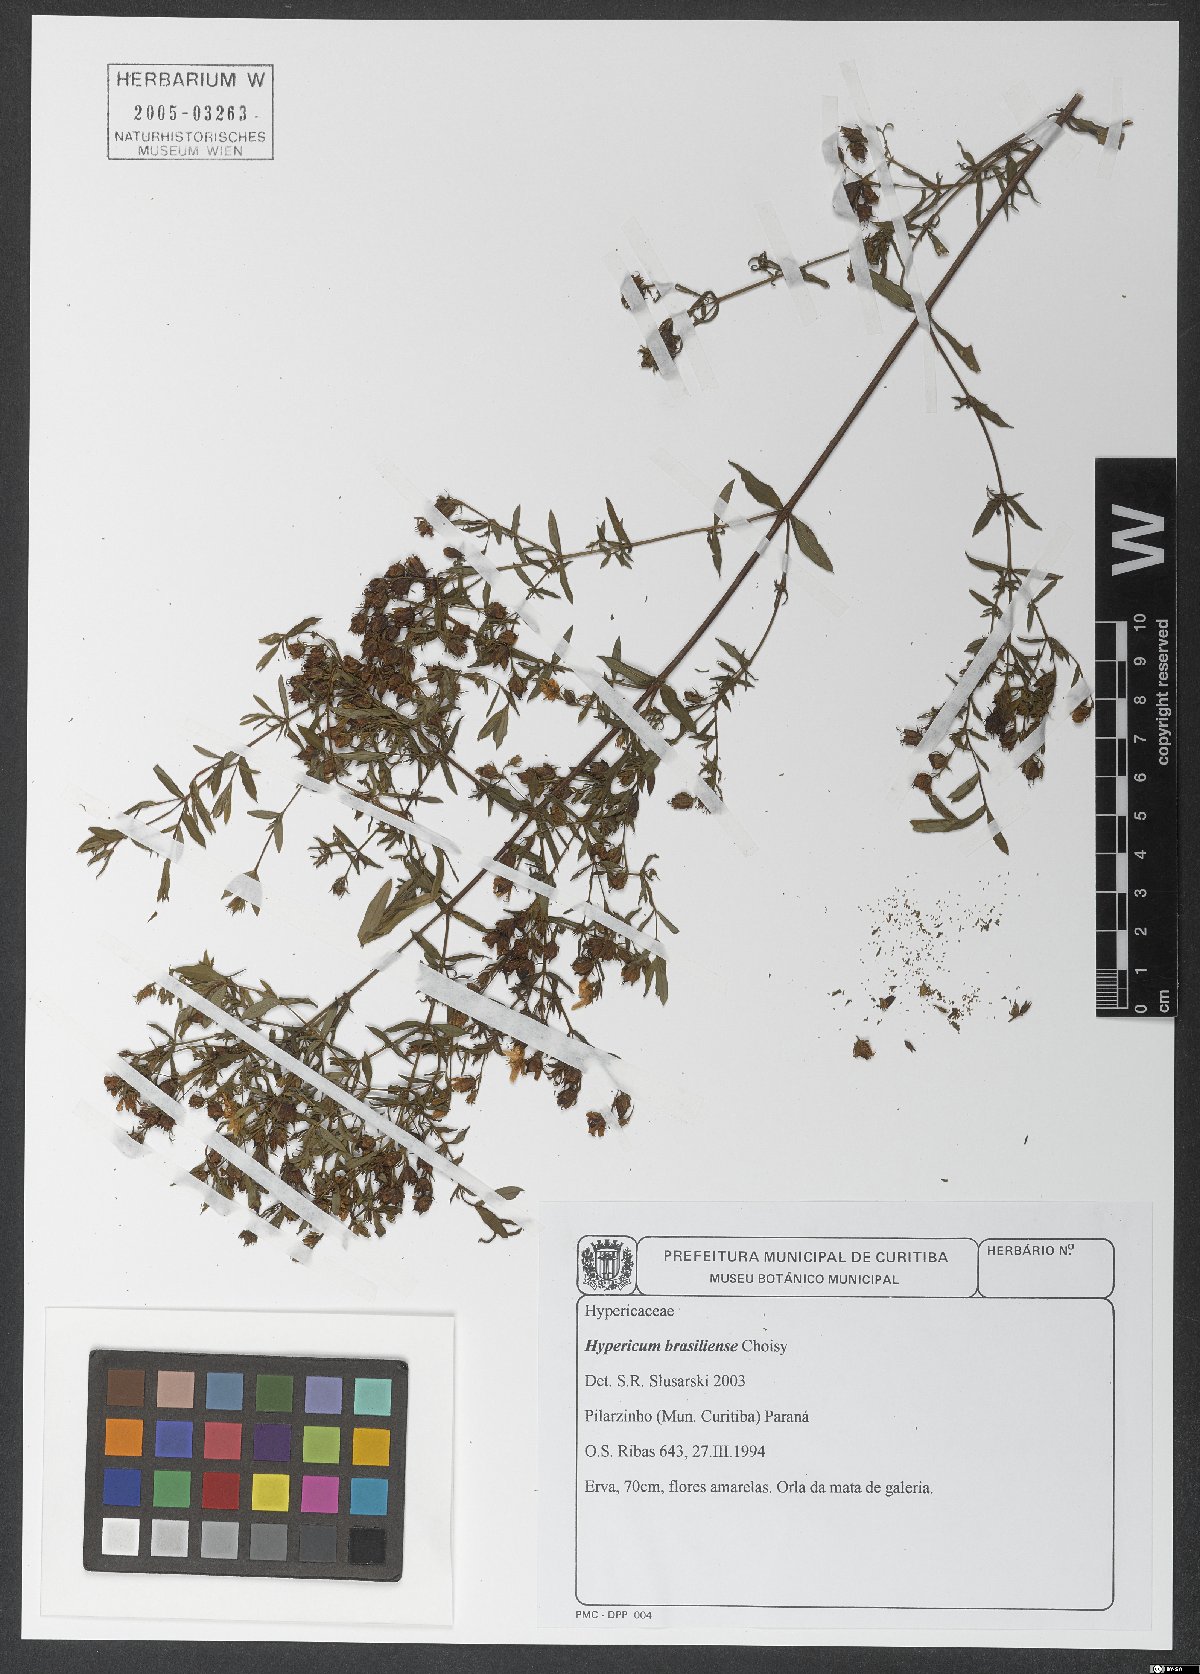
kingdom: Plantae
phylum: Tracheophyta
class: Magnoliopsida
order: Malpighiales
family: Hypericaceae
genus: Hypericum
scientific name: Hypericum brasiliense
